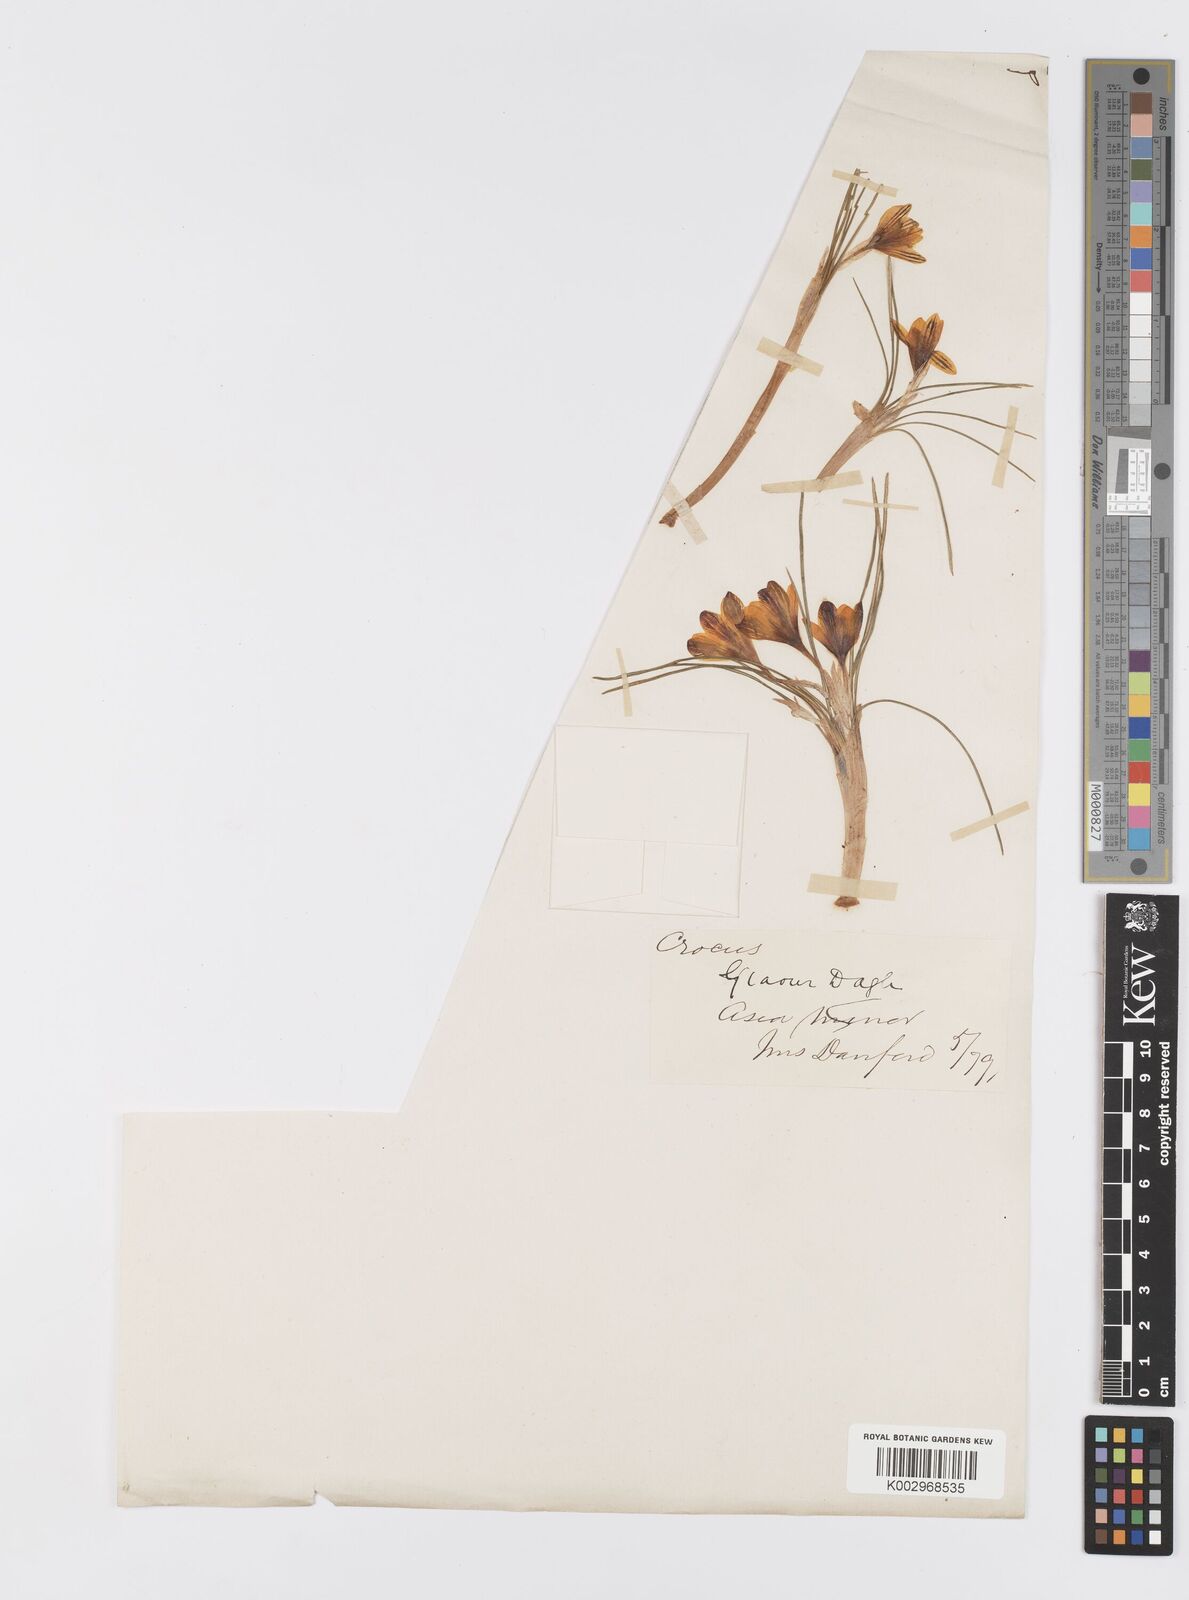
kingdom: Plantae
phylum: Tracheophyta
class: Liliopsida
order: Asparagales
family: Iridaceae
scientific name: Iridaceae
